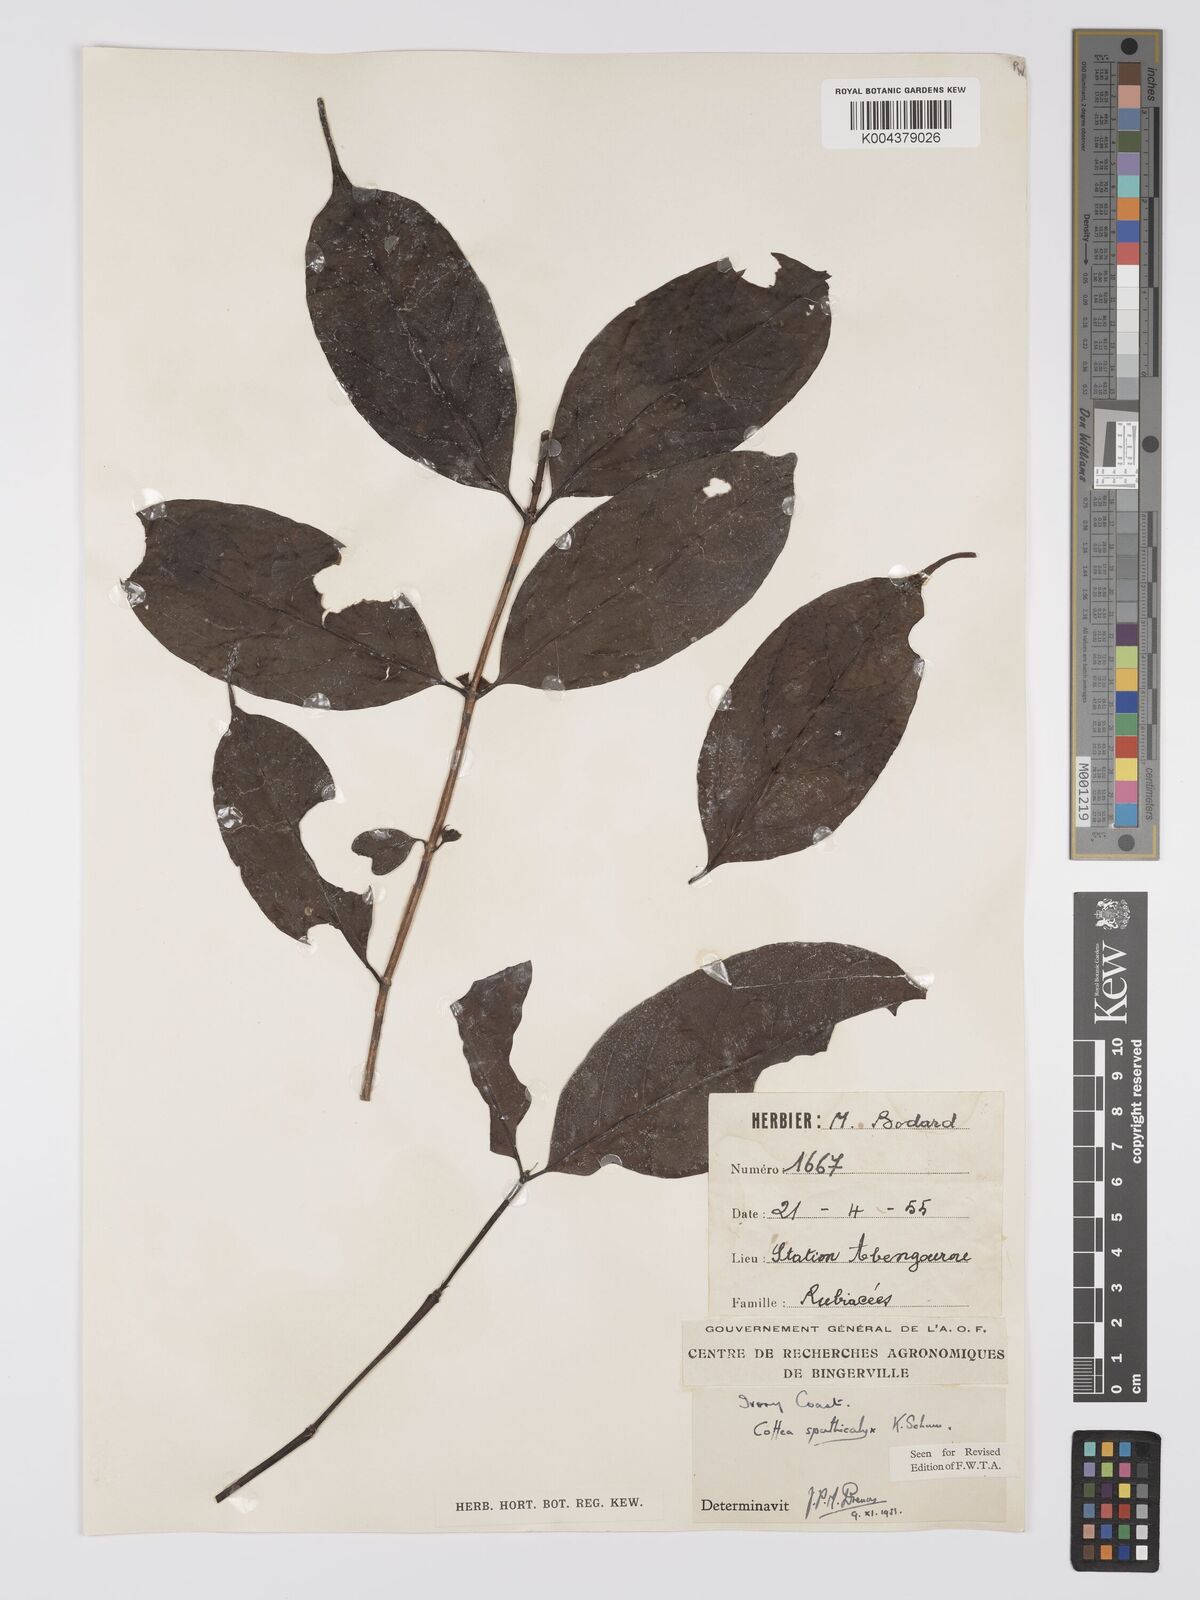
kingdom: Plantae
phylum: Tracheophyta
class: Magnoliopsida
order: Gentianales
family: Rubiaceae
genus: Calycosiphonia
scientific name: Calycosiphonia spathicalyx
